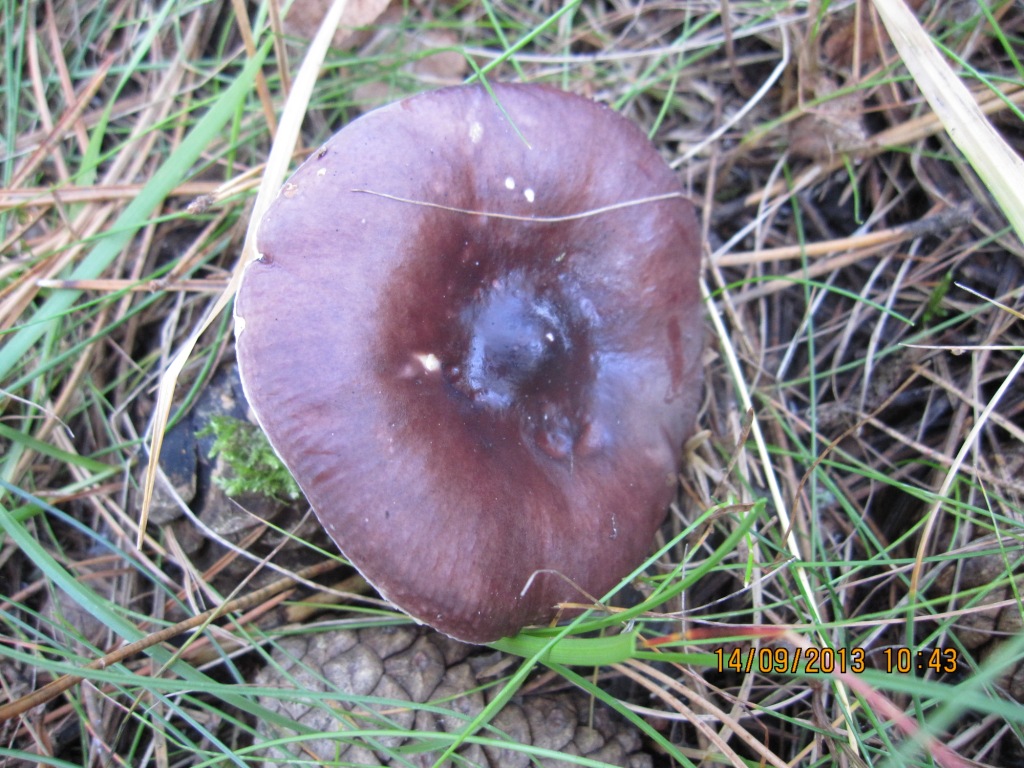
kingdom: Fungi
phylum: Basidiomycota
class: Agaricomycetes
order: Russulales
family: Russulaceae
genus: Russula
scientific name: Russula caerulea
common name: puklet skørhat
